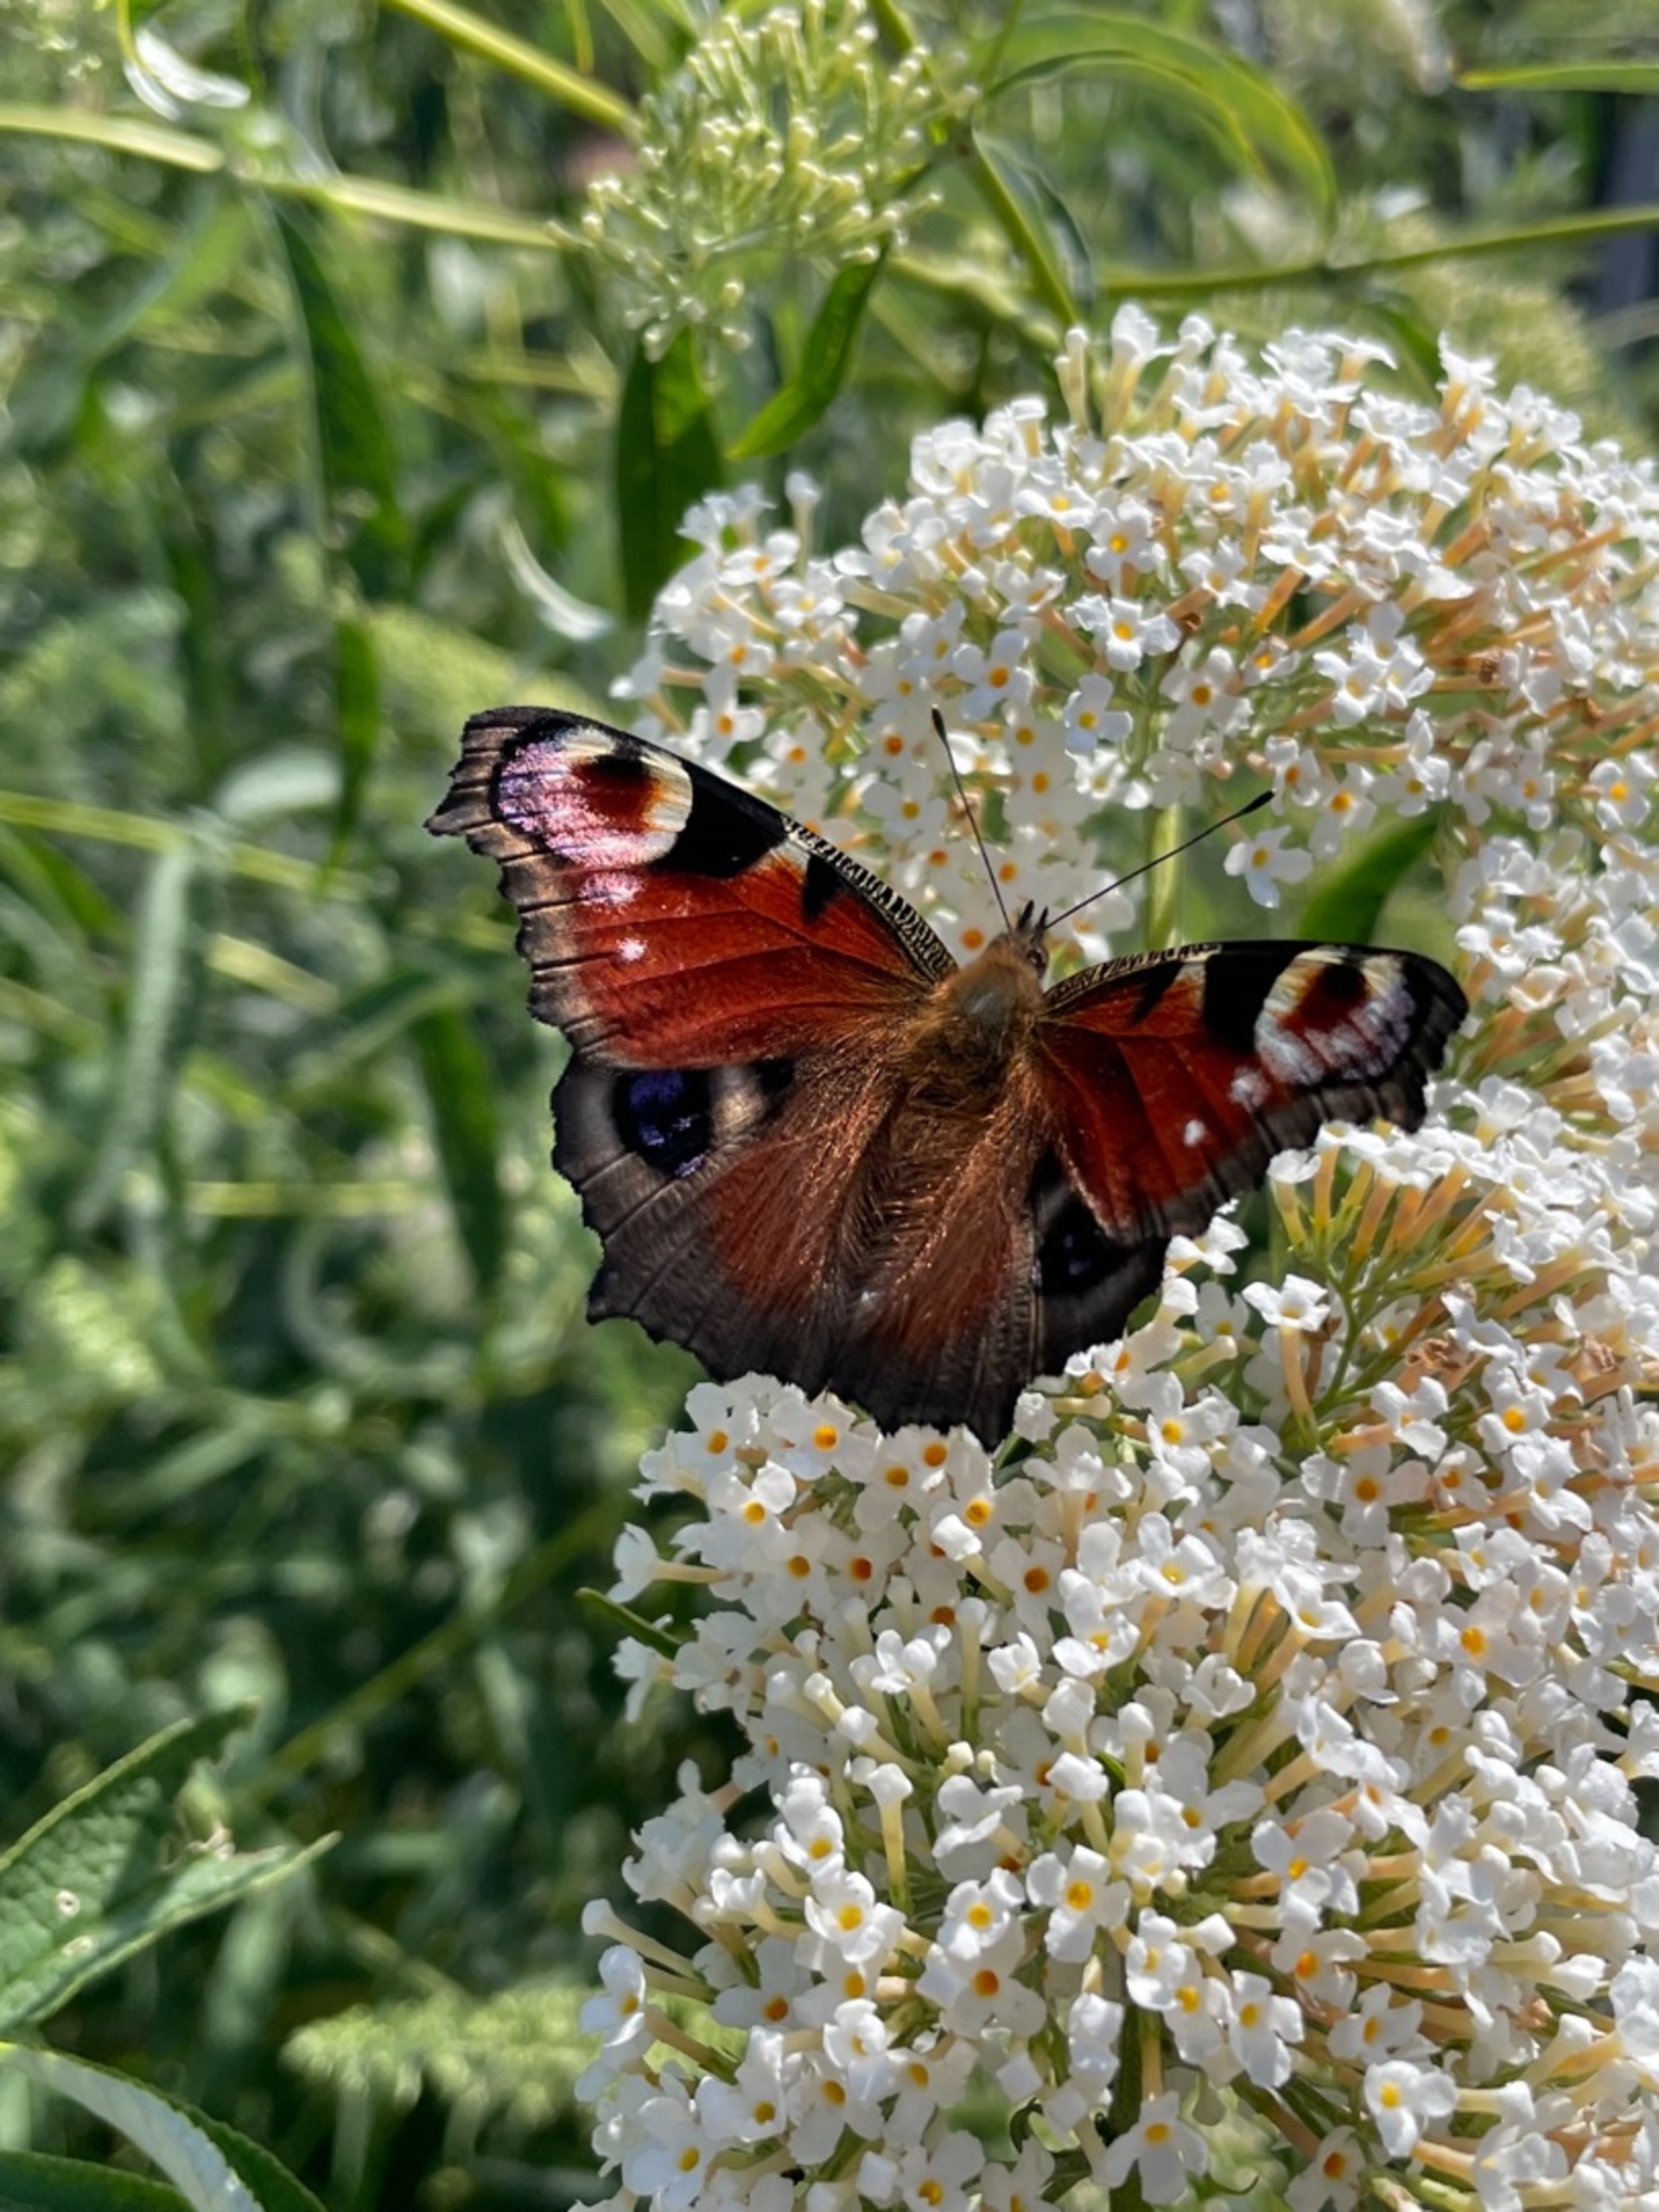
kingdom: Animalia
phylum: Arthropoda
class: Insecta
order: Lepidoptera
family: Nymphalidae
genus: Aglais
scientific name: Aglais io
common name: Dagpåfugleøje
